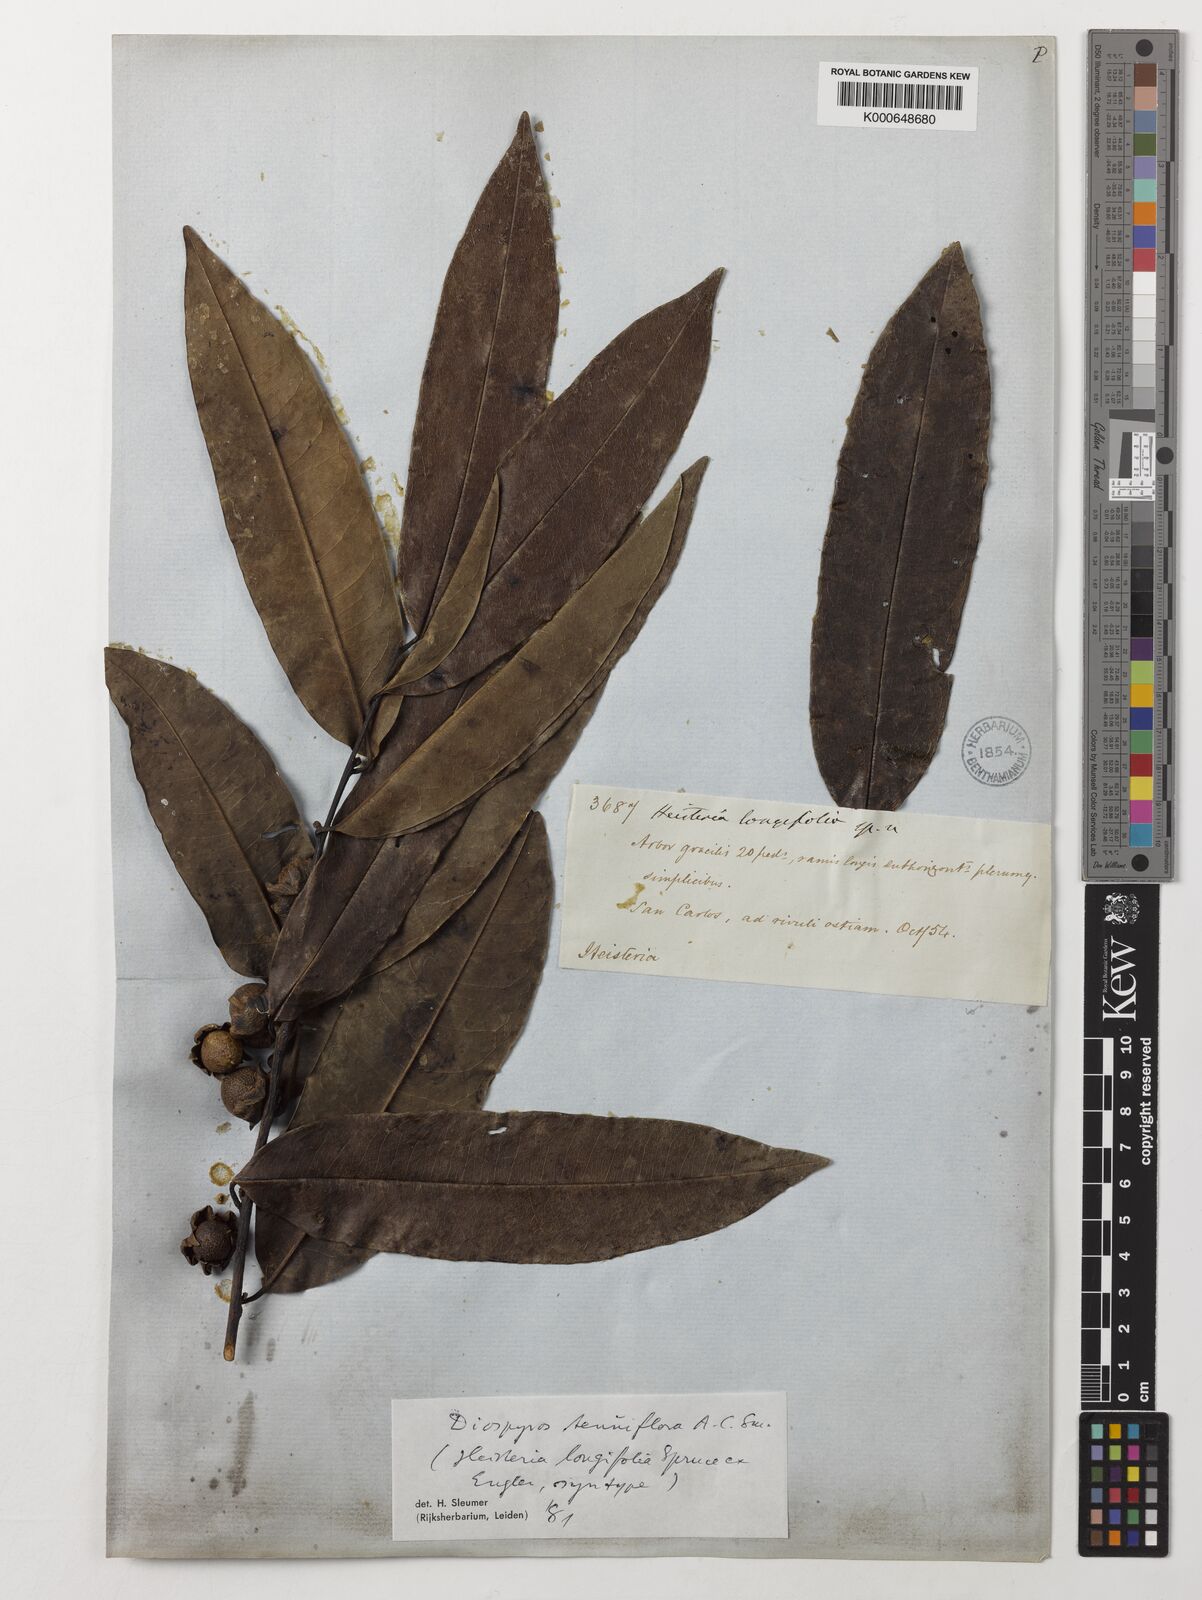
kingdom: Plantae
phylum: Tracheophyta
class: Magnoliopsida
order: Ericales
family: Ebenaceae
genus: Diospyros
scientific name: Diospyros tenuiflora
